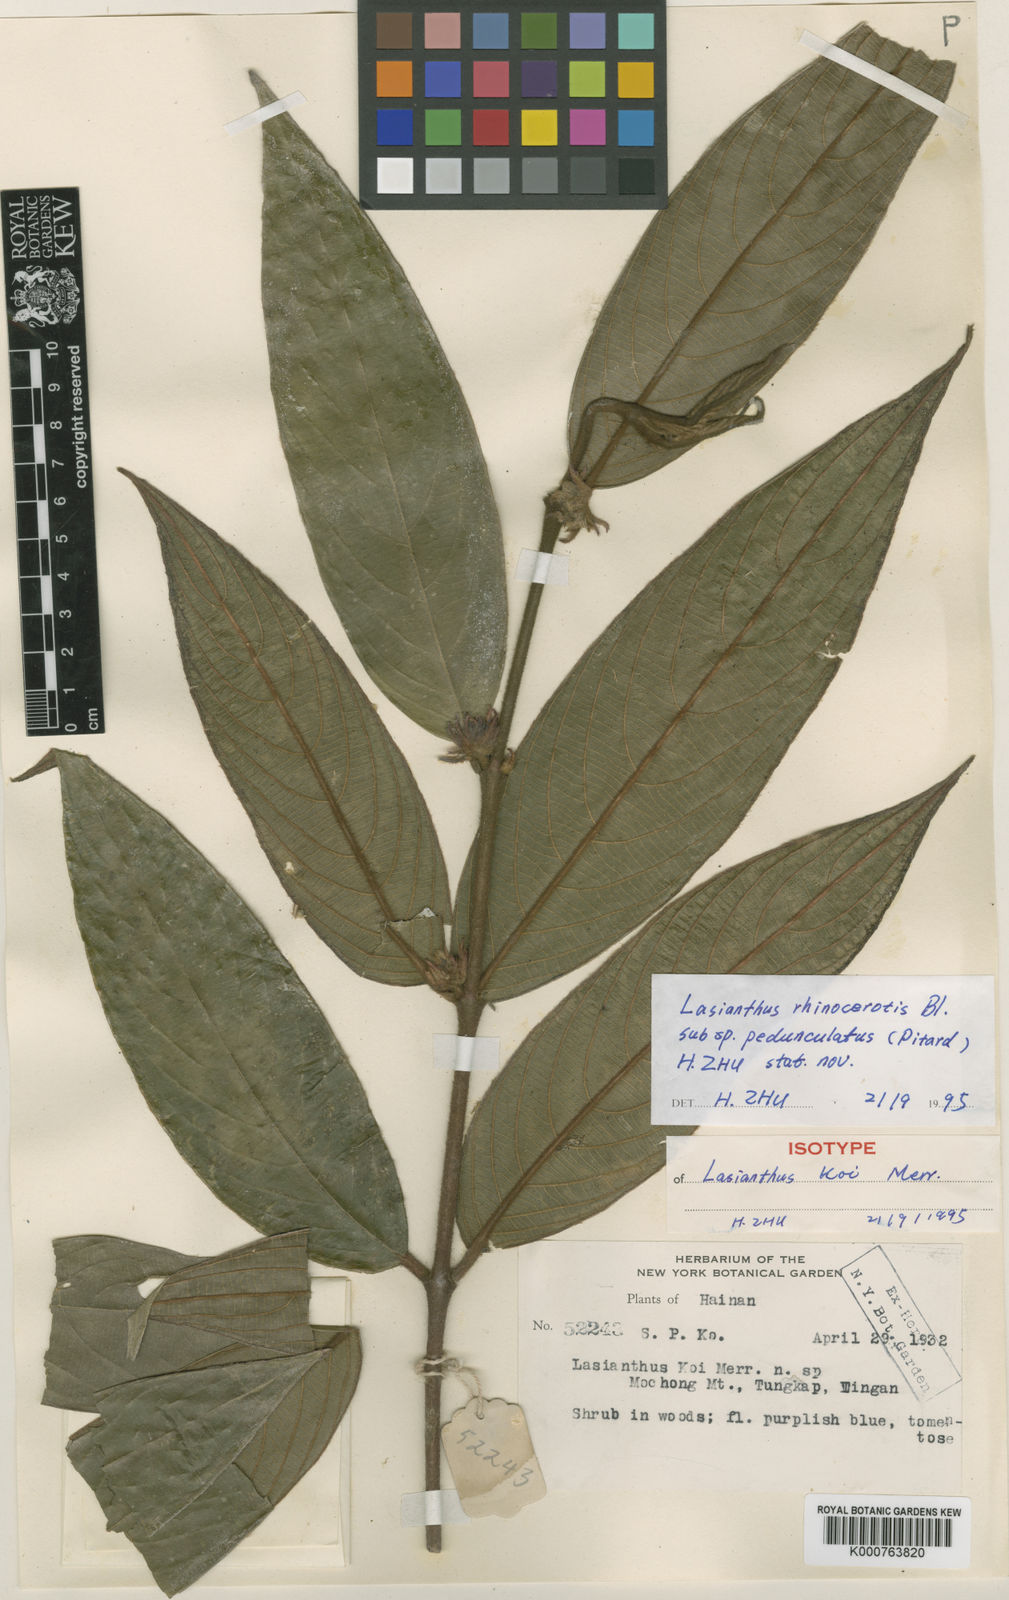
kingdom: Plantae
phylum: Tracheophyta
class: Magnoliopsida
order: Gentianales
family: Rubiaceae
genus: Lasianthus
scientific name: Lasianthus rhinocerotis
